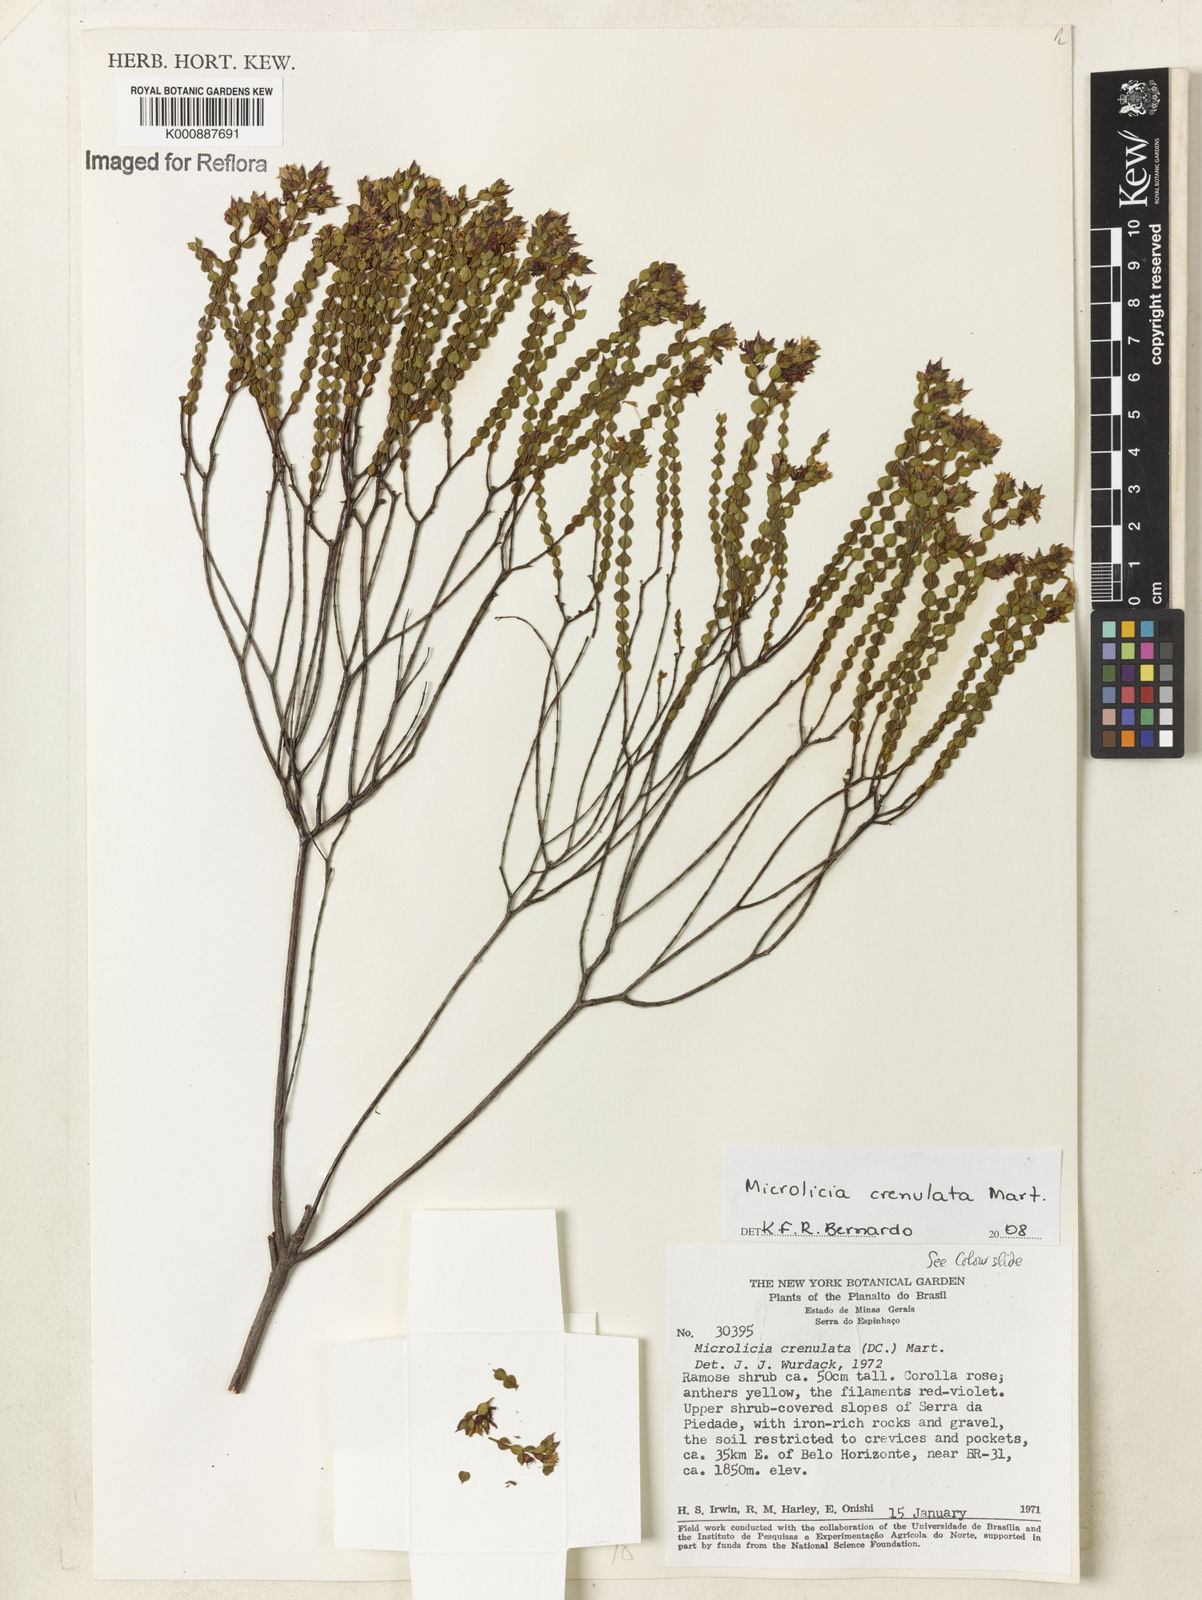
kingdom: Plantae
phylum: Tracheophyta
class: Magnoliopsida
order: Myrtales
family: Melastomataceae
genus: Microlicia
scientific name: Microlicia crenulata
